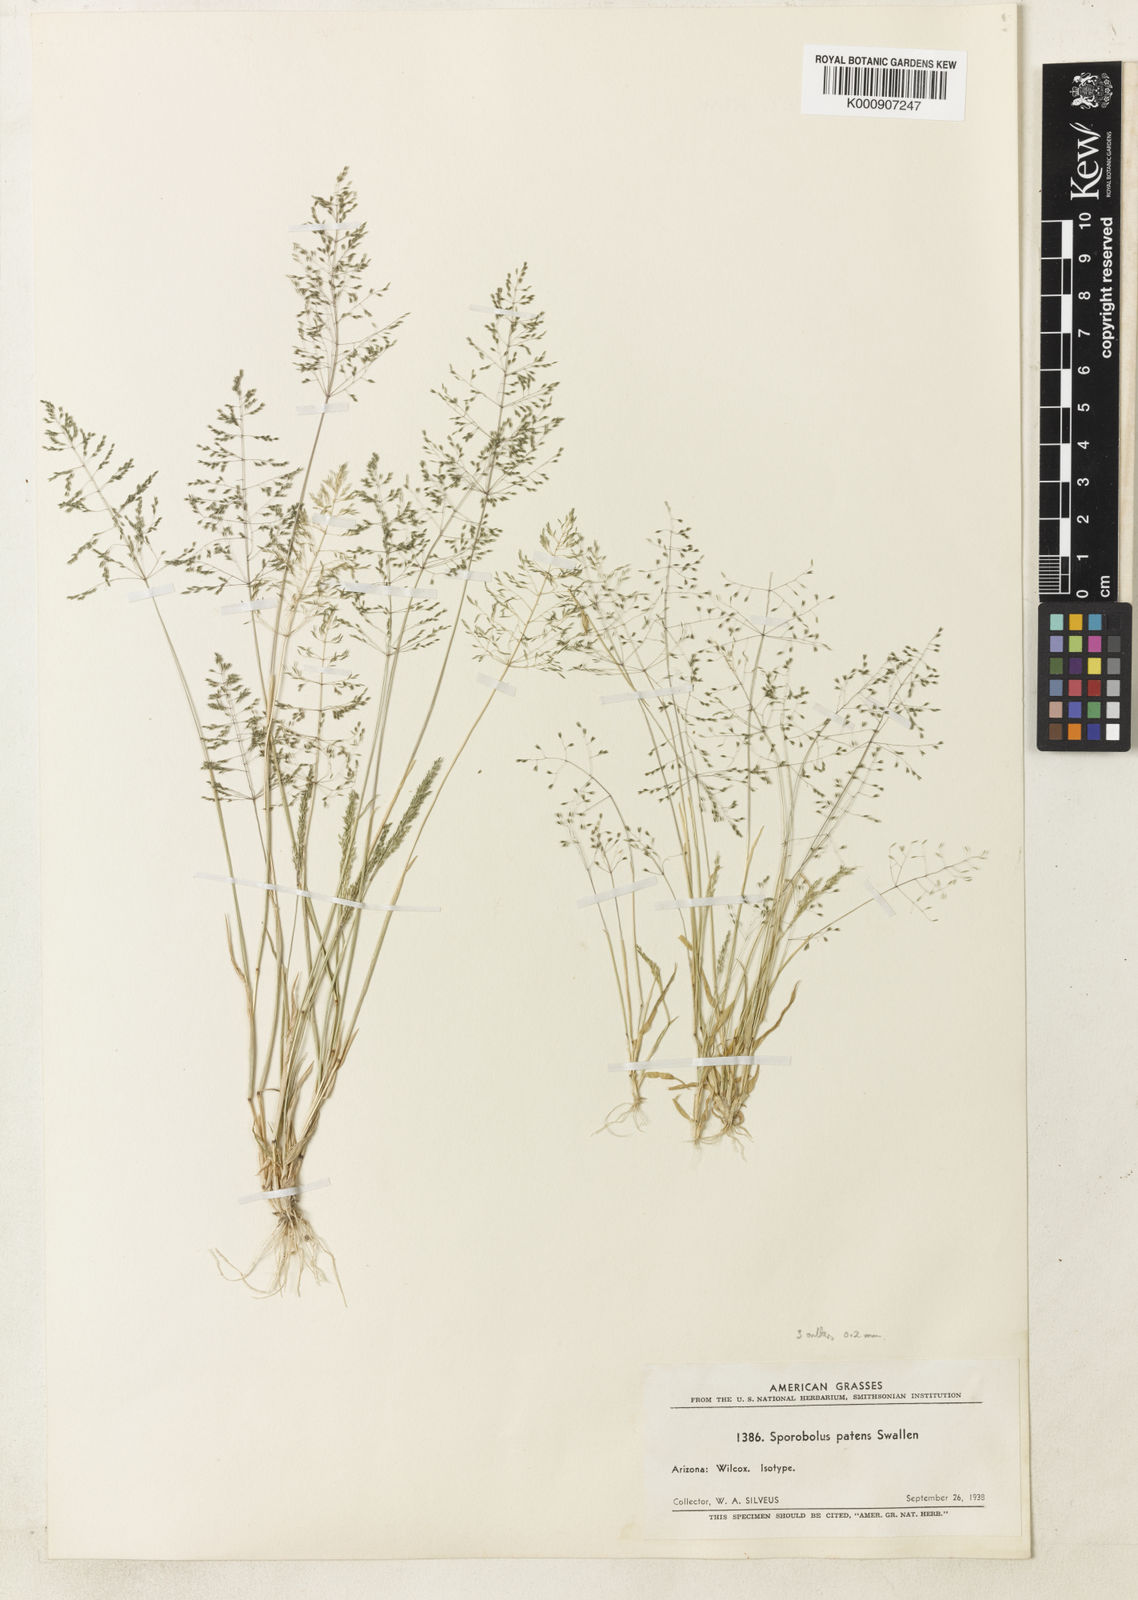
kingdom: Plantae
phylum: Tracheophyta
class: Liliopsida
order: Poales
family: Poaceae
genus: Sporobolus
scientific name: Sporobolus pyramidatus
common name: Whorled dropseed
